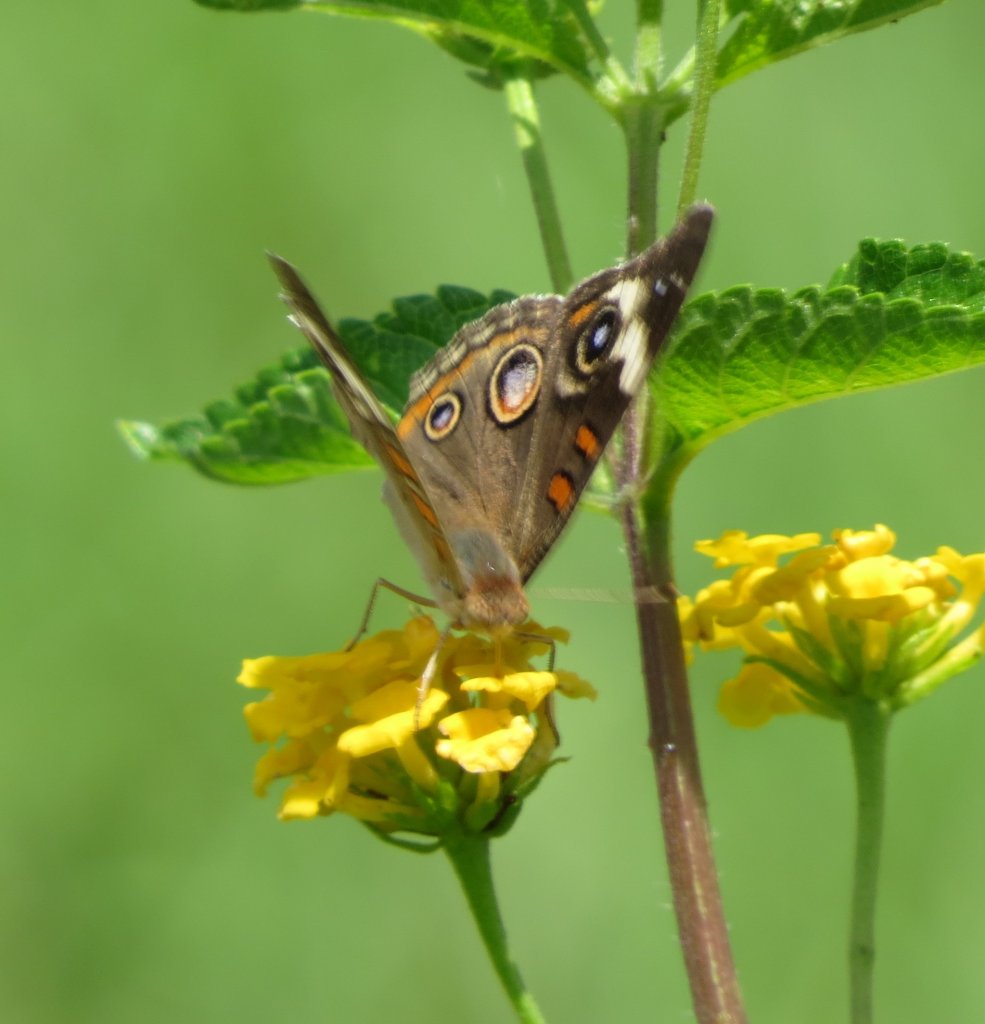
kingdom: Animalia
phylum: Arthropoda
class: Insecta
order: Lepidoptera
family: Nymphalidae
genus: Junonia
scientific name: Junonia coenia
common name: Common Buckeye
